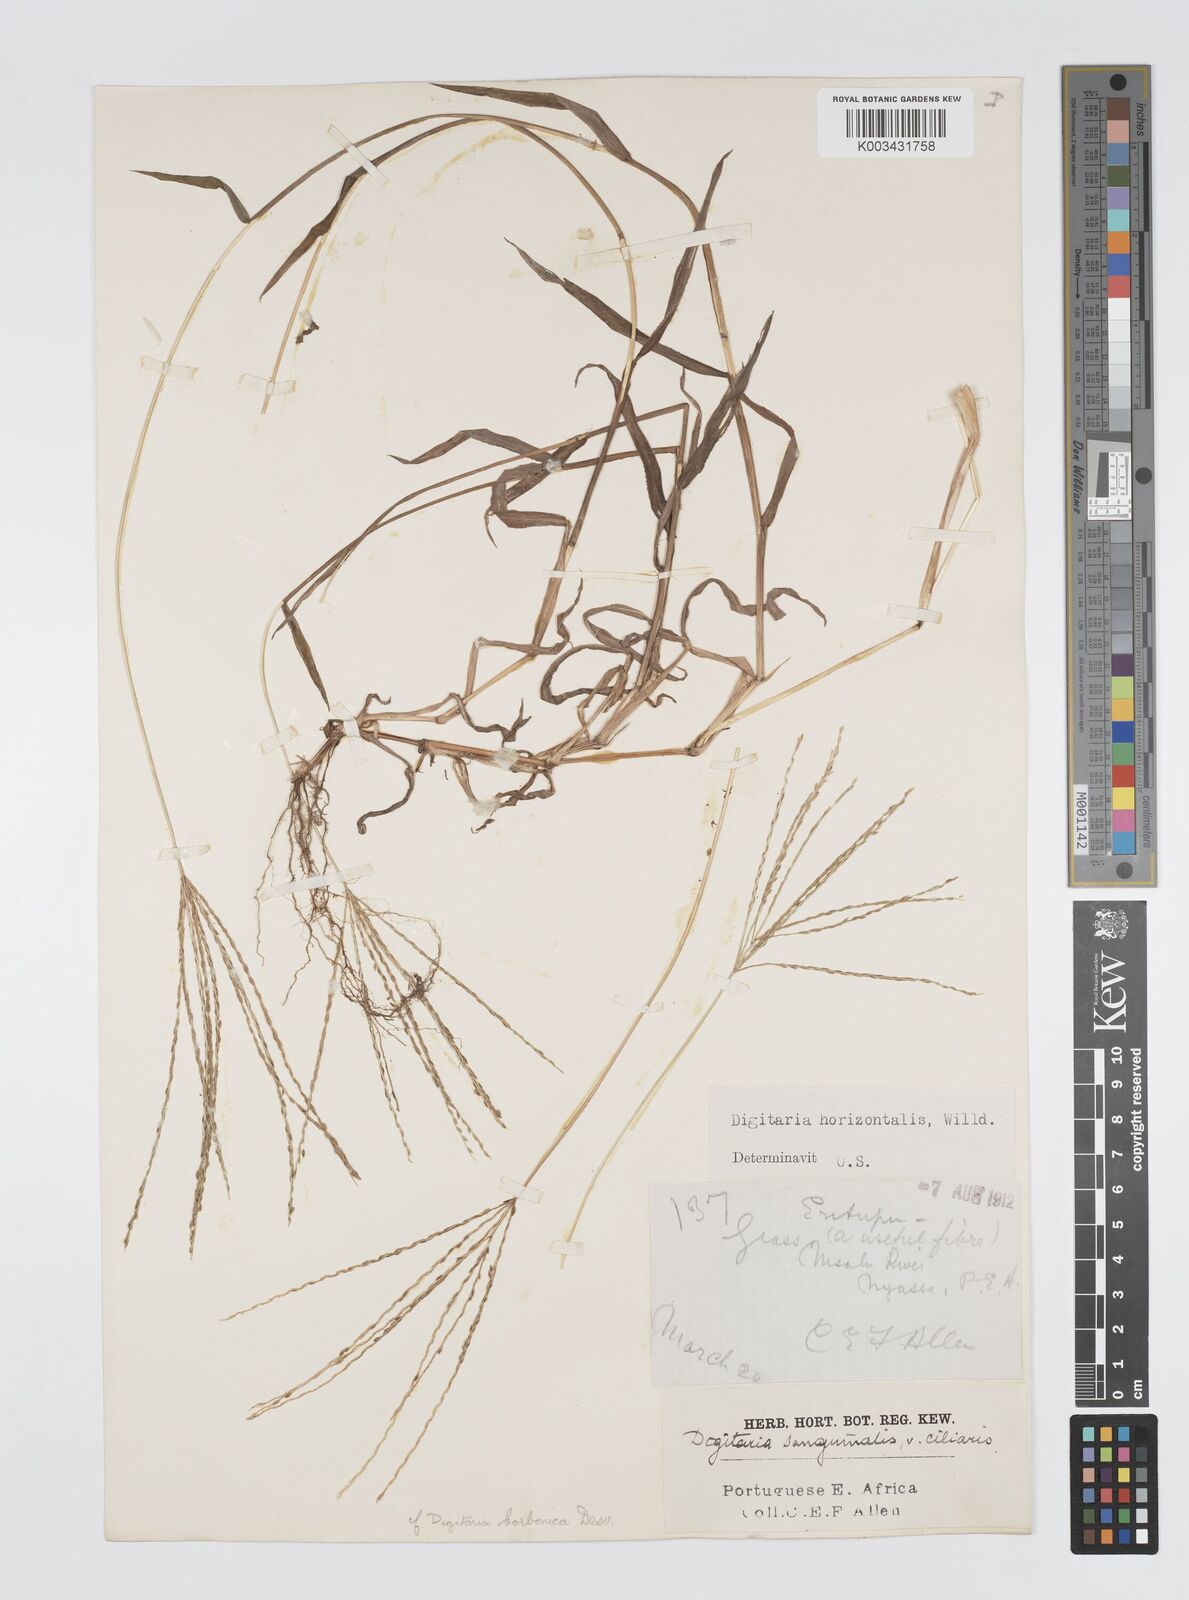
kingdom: Plantae
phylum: Tracheophyta
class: Liliopsida
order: Poales
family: Poaceae
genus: Digitaria
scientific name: Digitaria nuda
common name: Naked crabgrass
